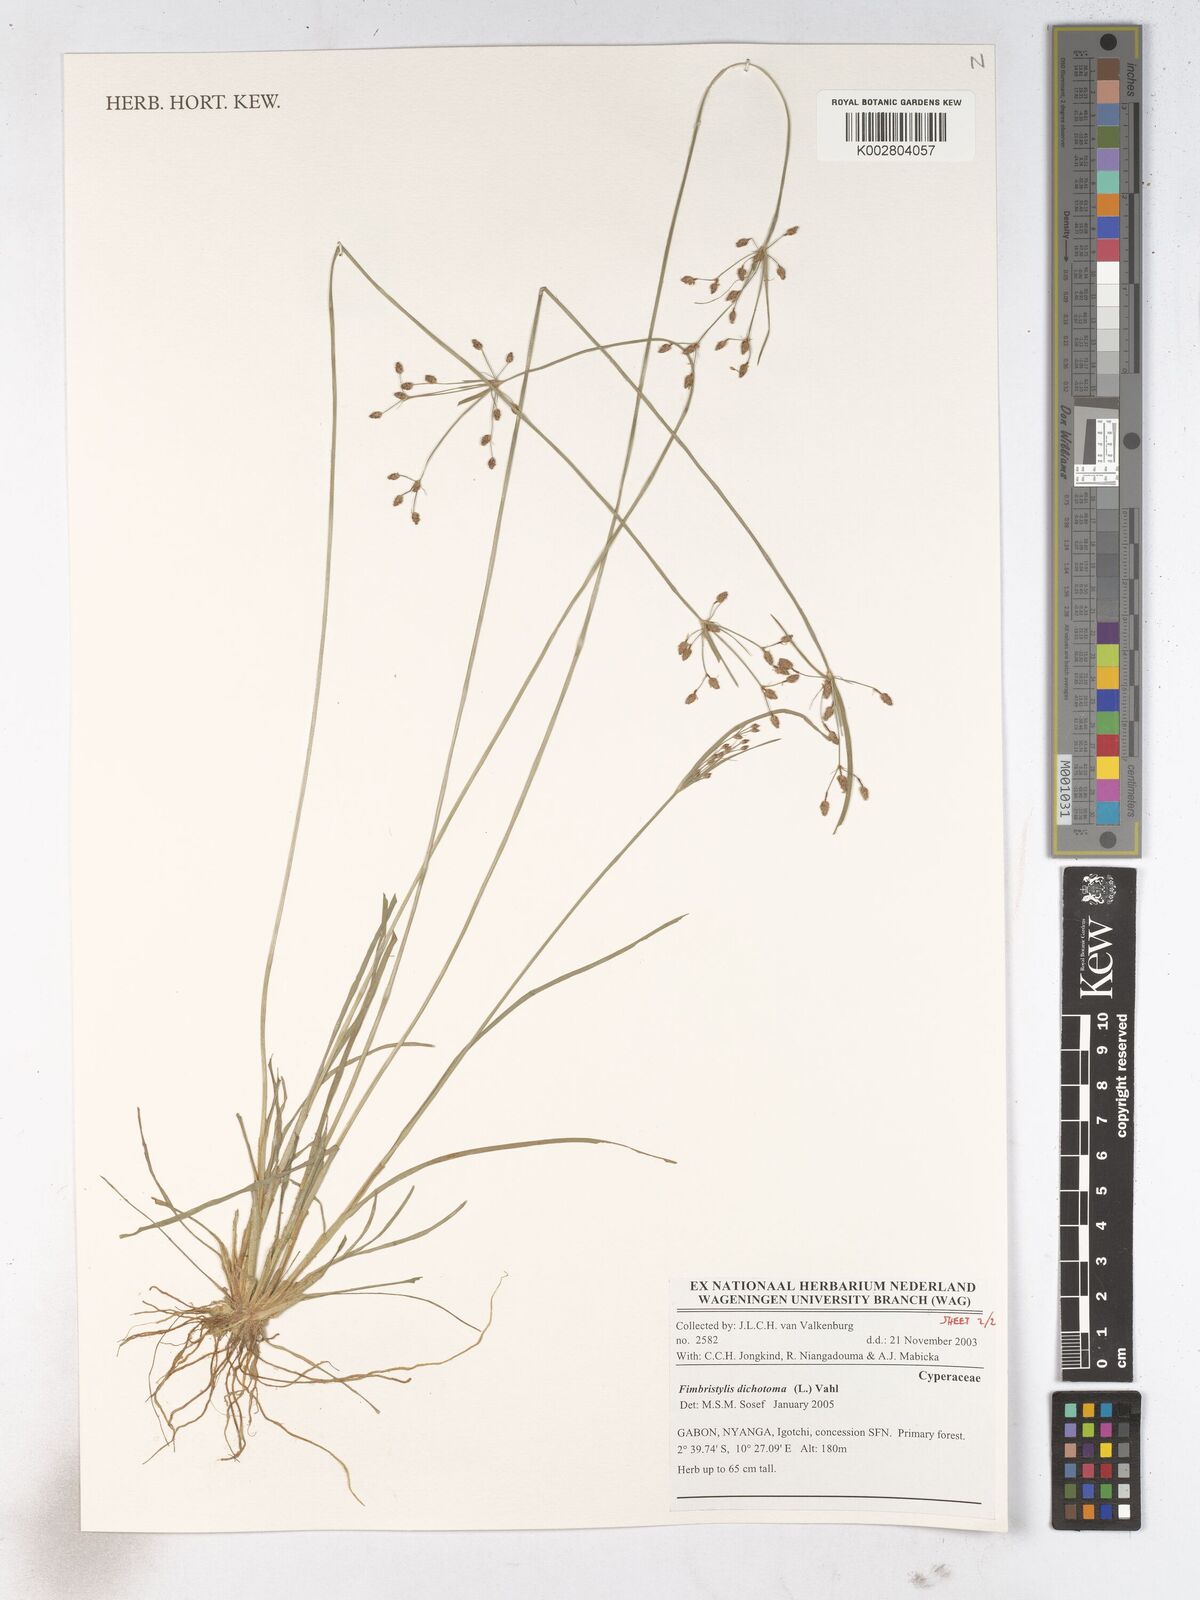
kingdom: Plantae
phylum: Tracheophyta
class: Liliopsida
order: Poales
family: Cyperaceae
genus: Fimbristylis
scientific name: Fimbristylis dichotoma
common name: Forked fimbry
